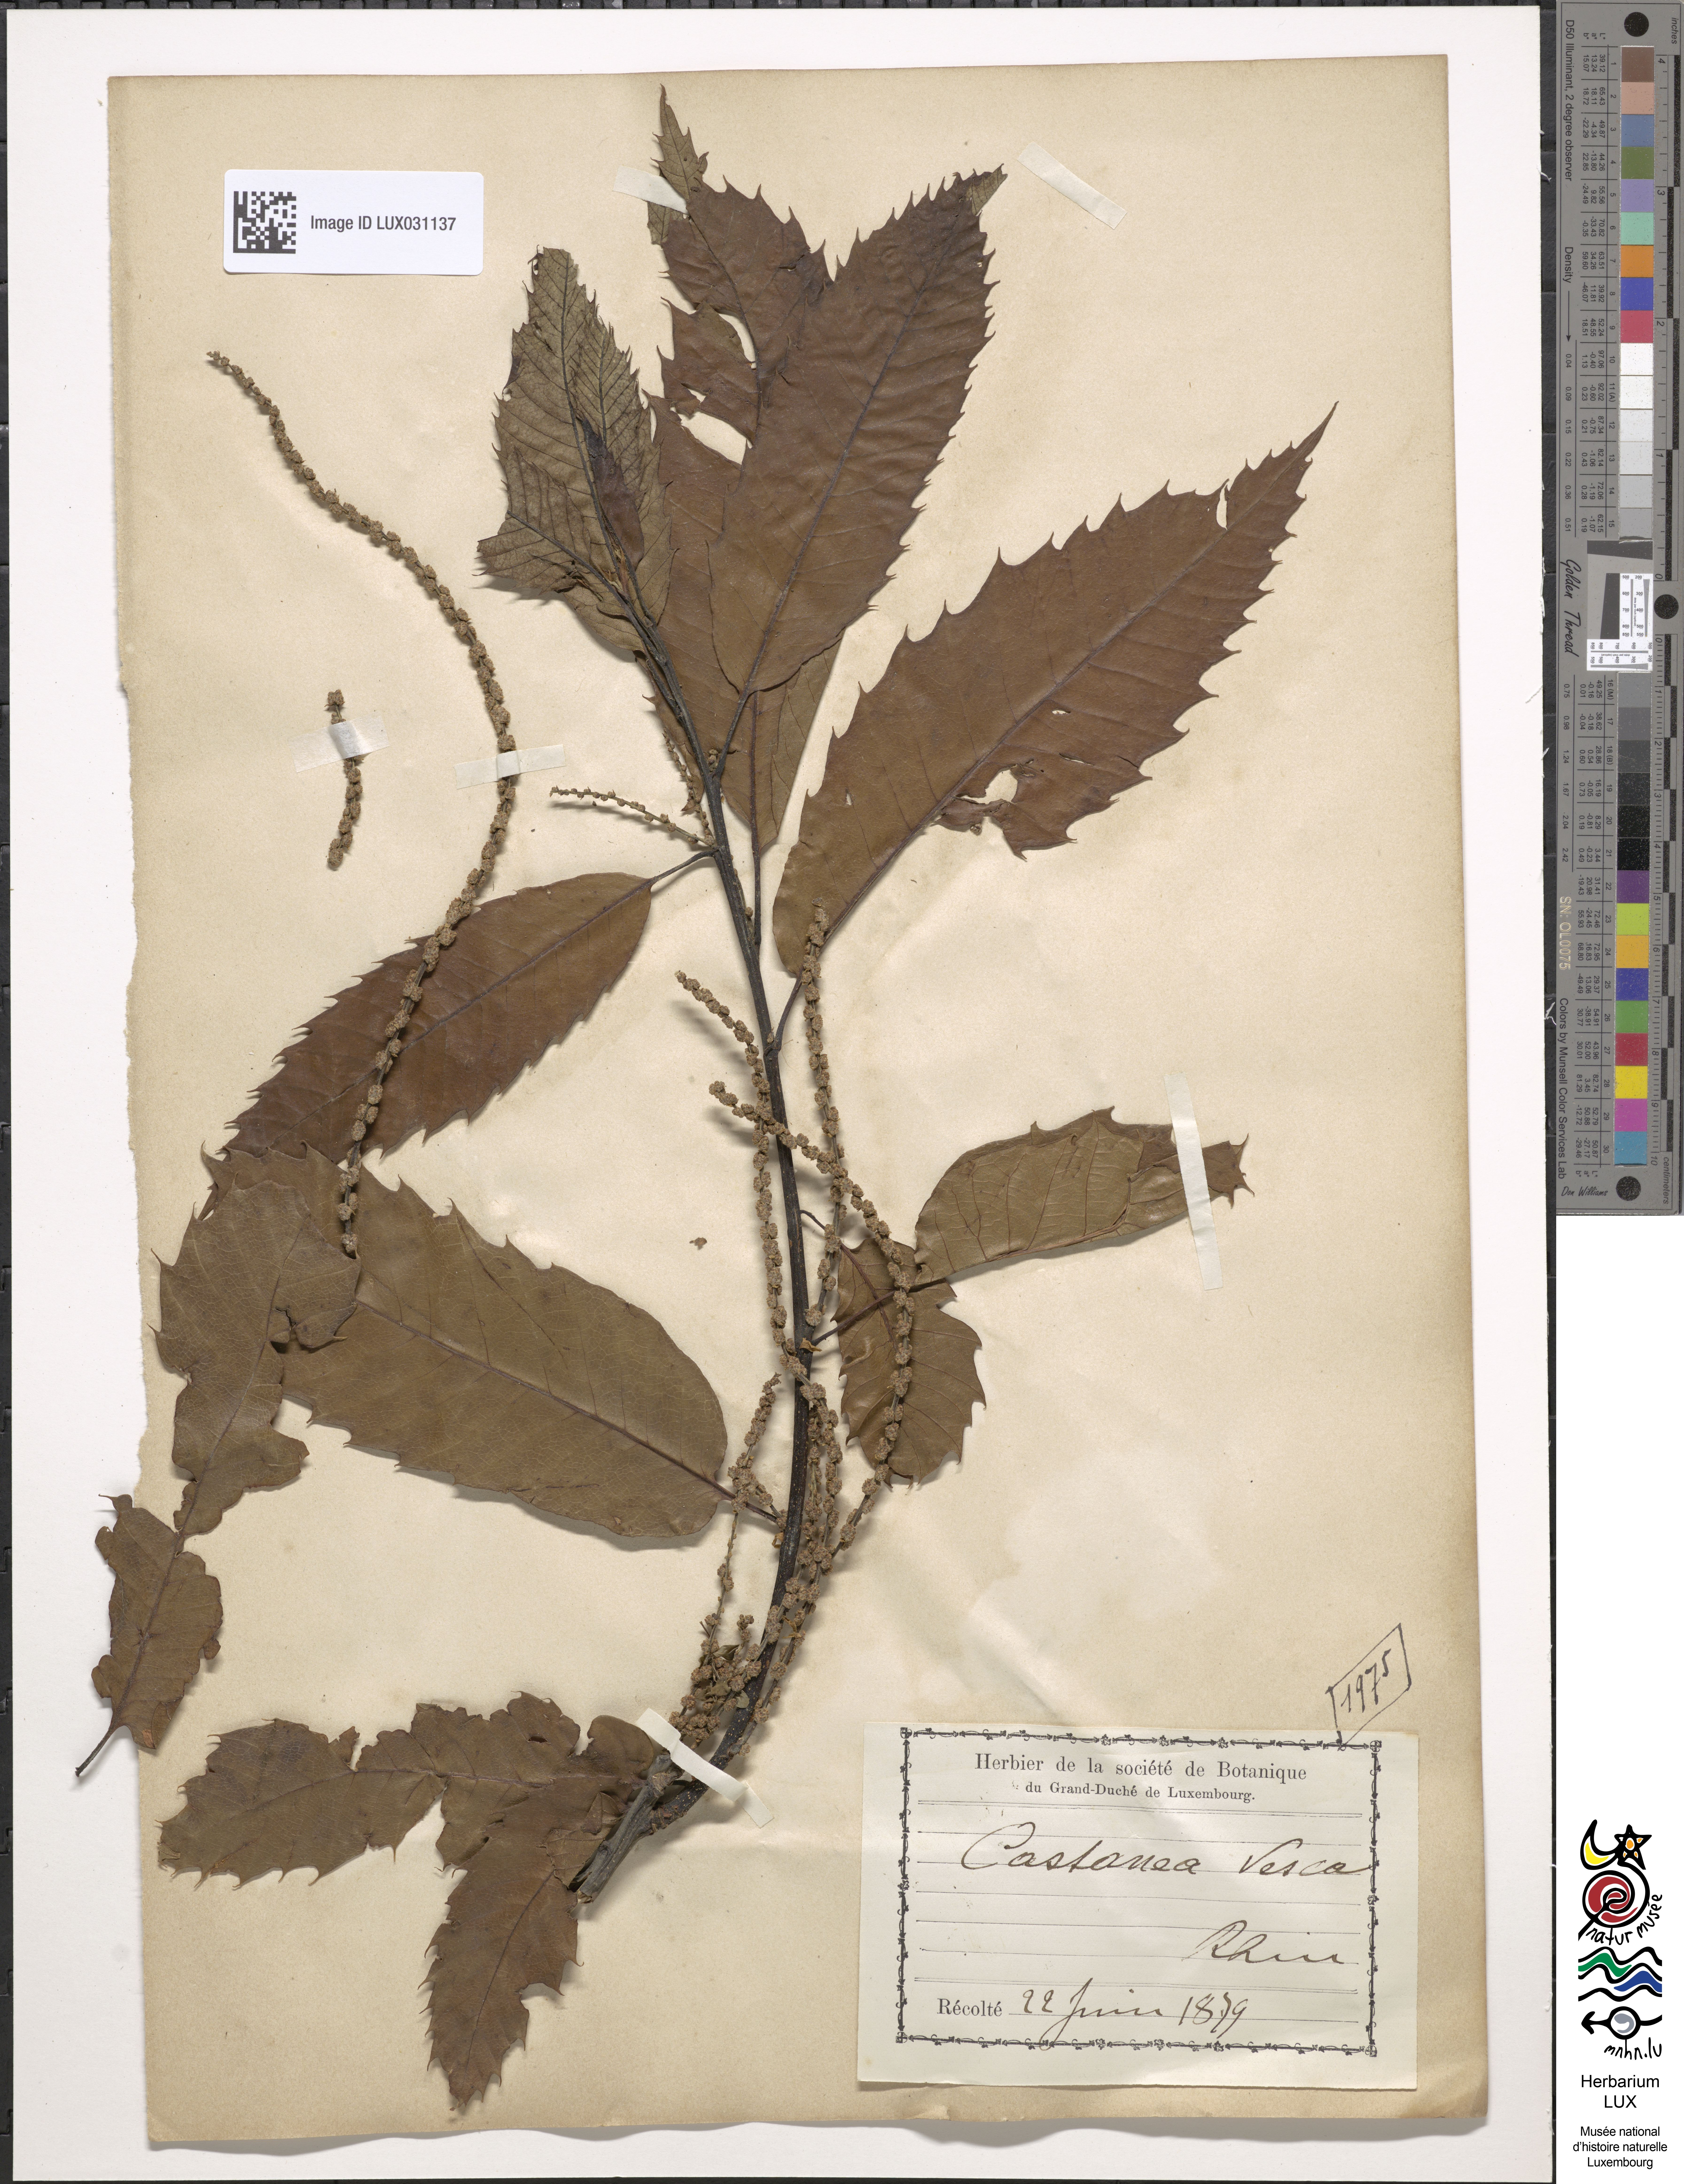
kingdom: Plantae
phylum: Tracheophyta
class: Magnoliopsida
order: Fagales
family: Fagaceae
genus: Castanea
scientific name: Castanea sativa
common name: Sweet chestnut
